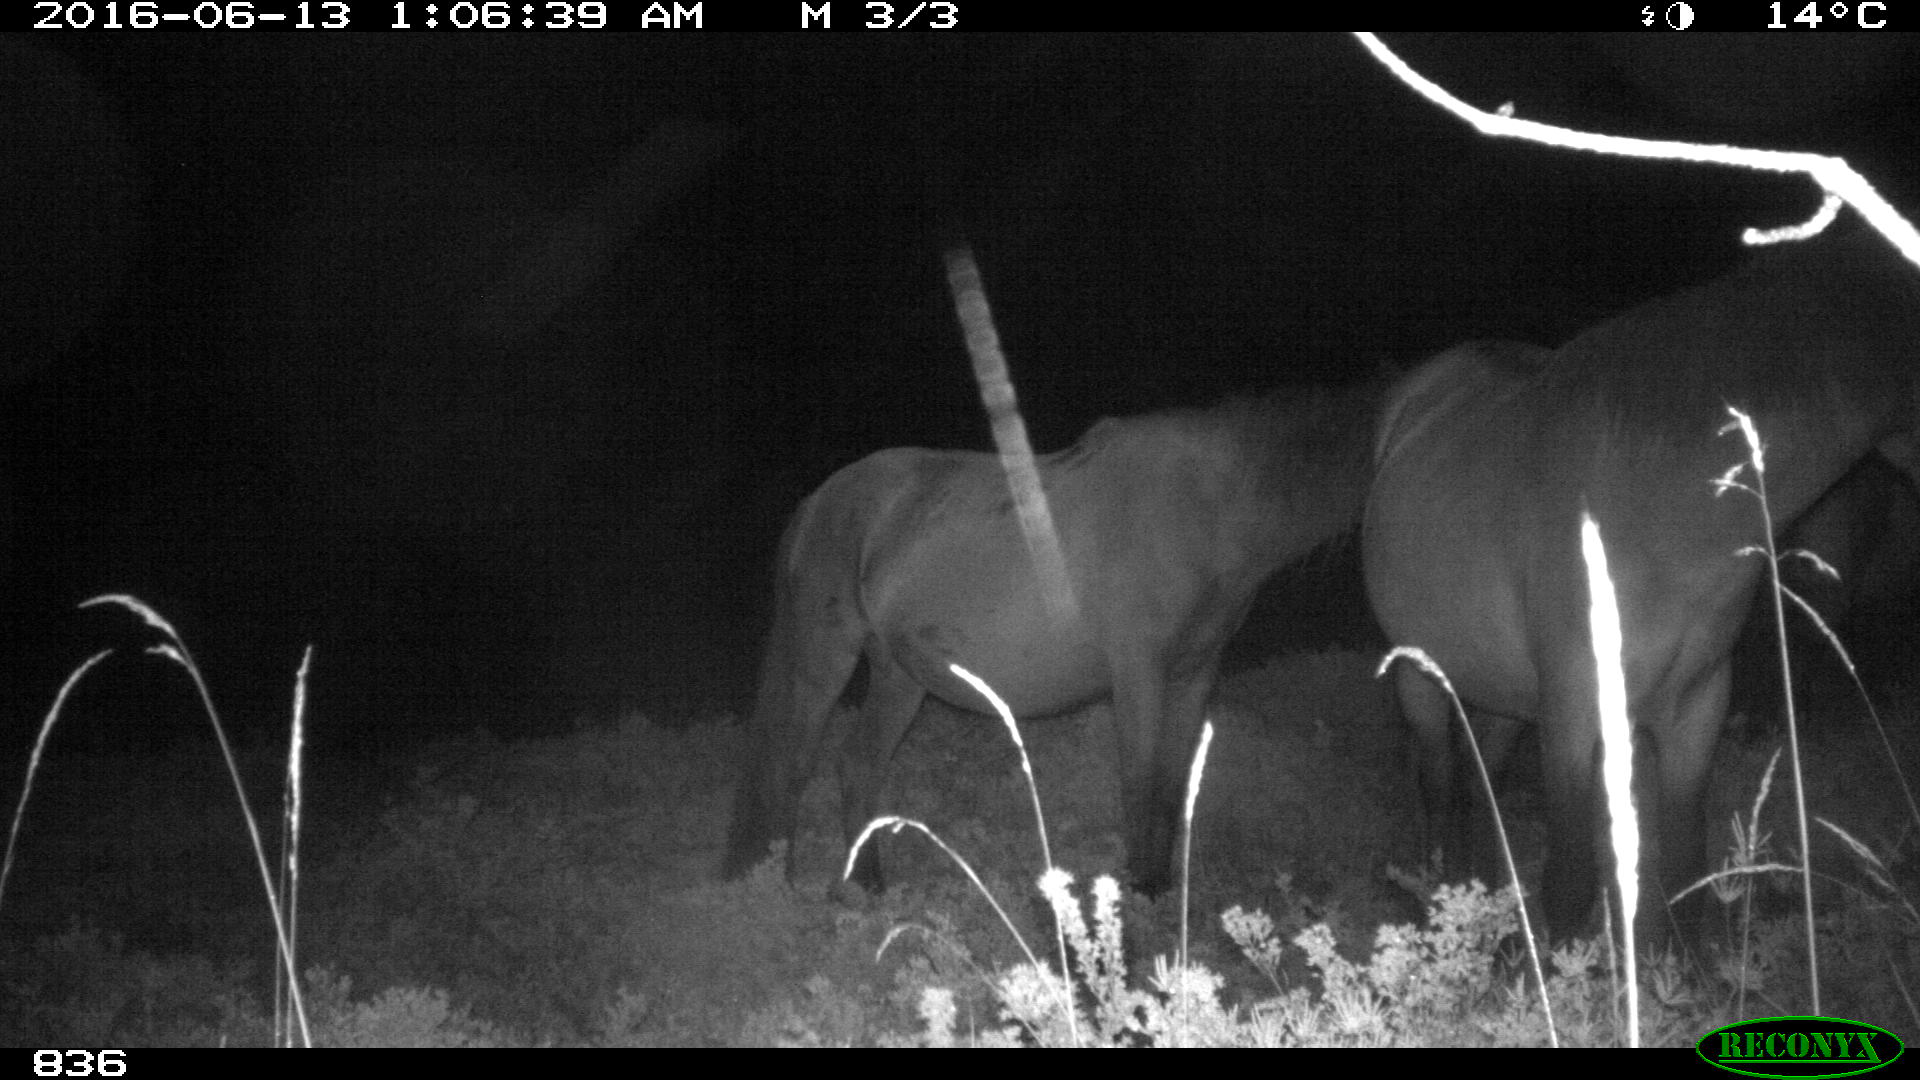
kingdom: Animalia
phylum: Chordata
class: Mammalia
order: Perissodactyla
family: Equidae
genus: Equus
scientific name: Equus caballus
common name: Horse
